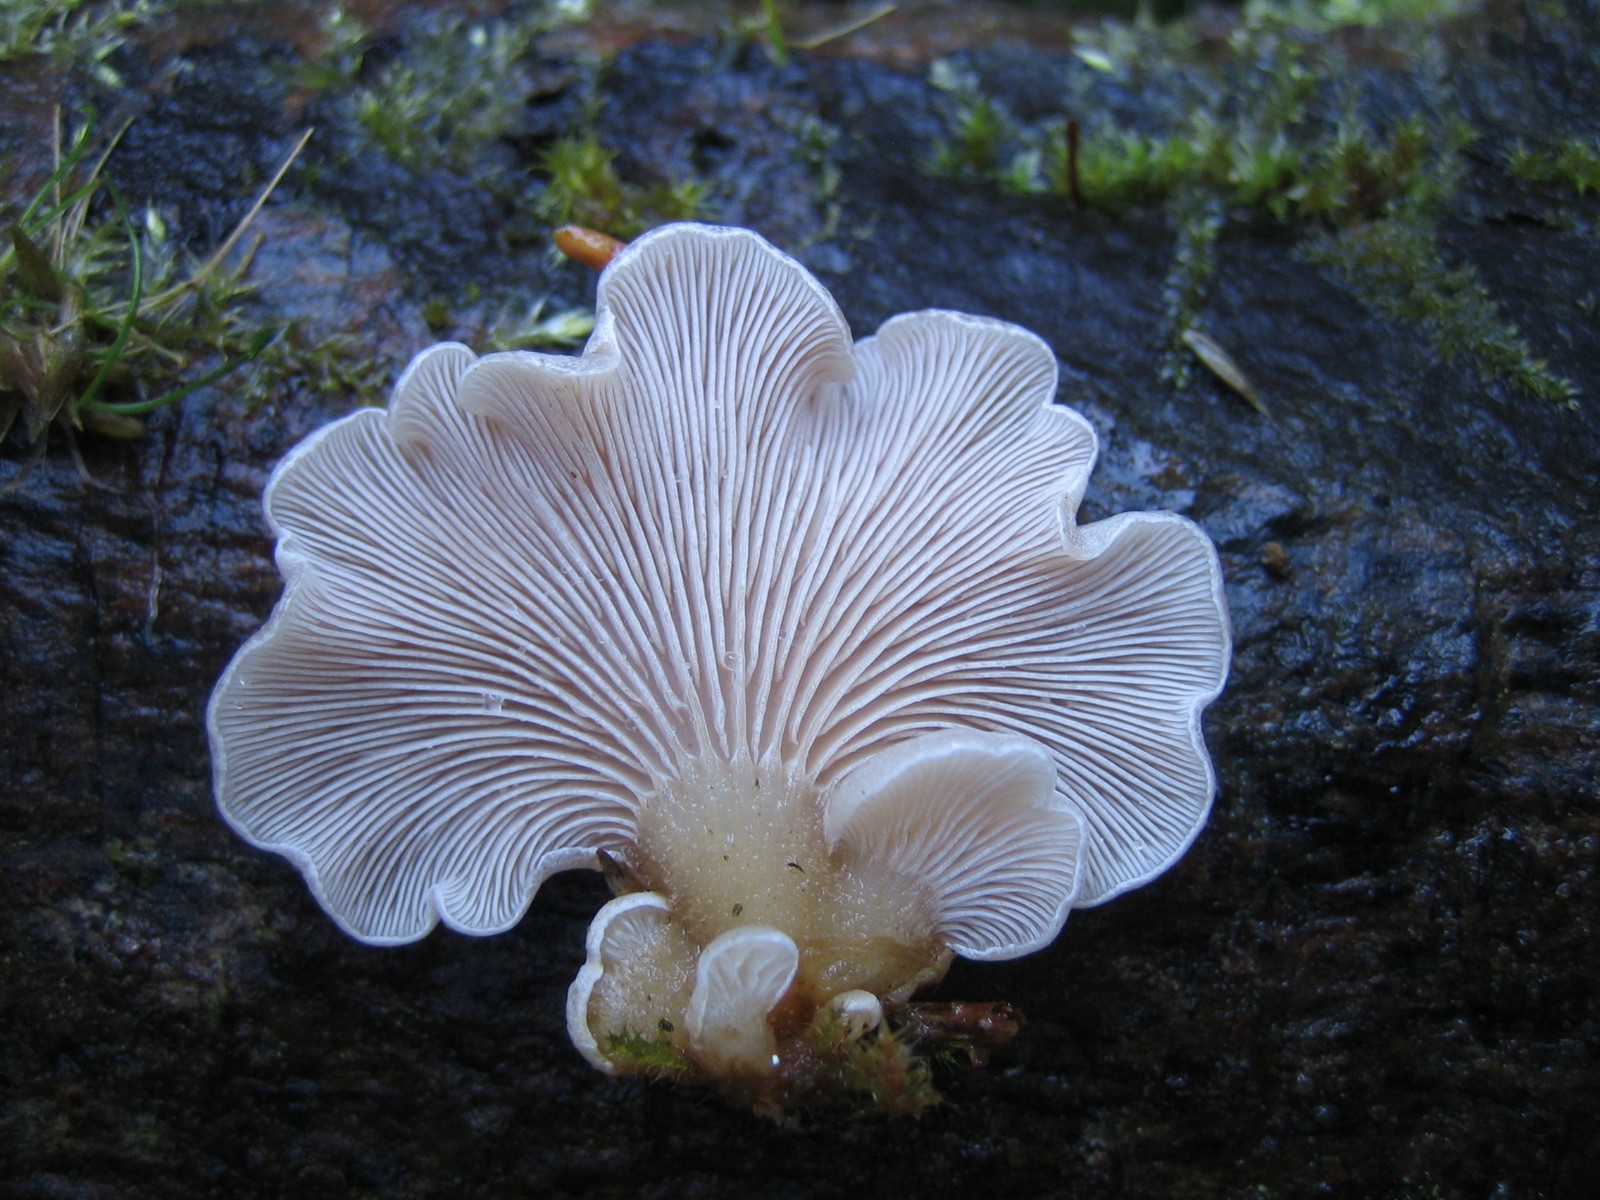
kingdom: Fungi
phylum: Basidiomycota
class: Agaricomycetes
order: Agaricales
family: Mycenaceae
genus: Panellus
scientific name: Panellus mitis
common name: mild epaulethat
